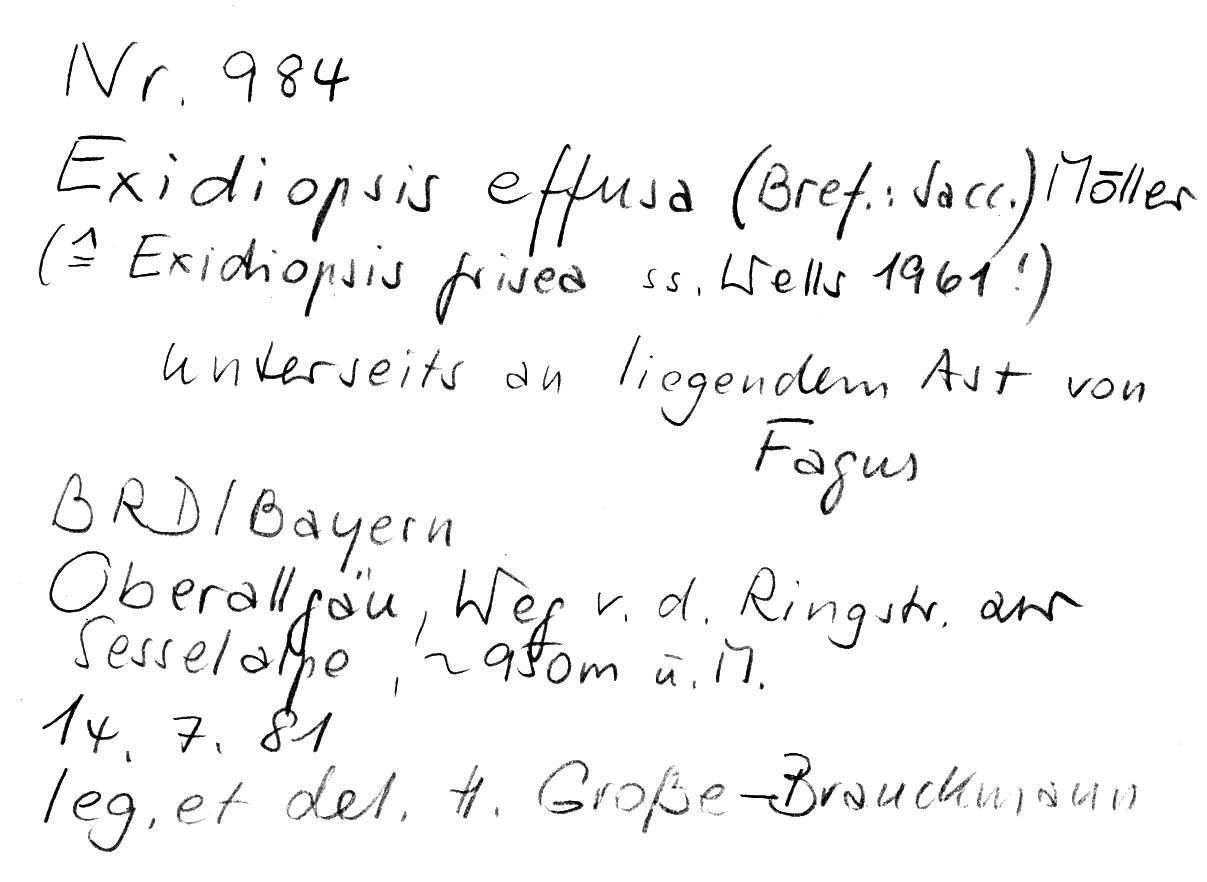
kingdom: Fungi
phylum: Basidiomycota
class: Agaricomycetes
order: Auriculariales
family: Auriculariaceae
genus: Exidiopsis
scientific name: Exidiopsis effusa
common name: Hair ice crust
